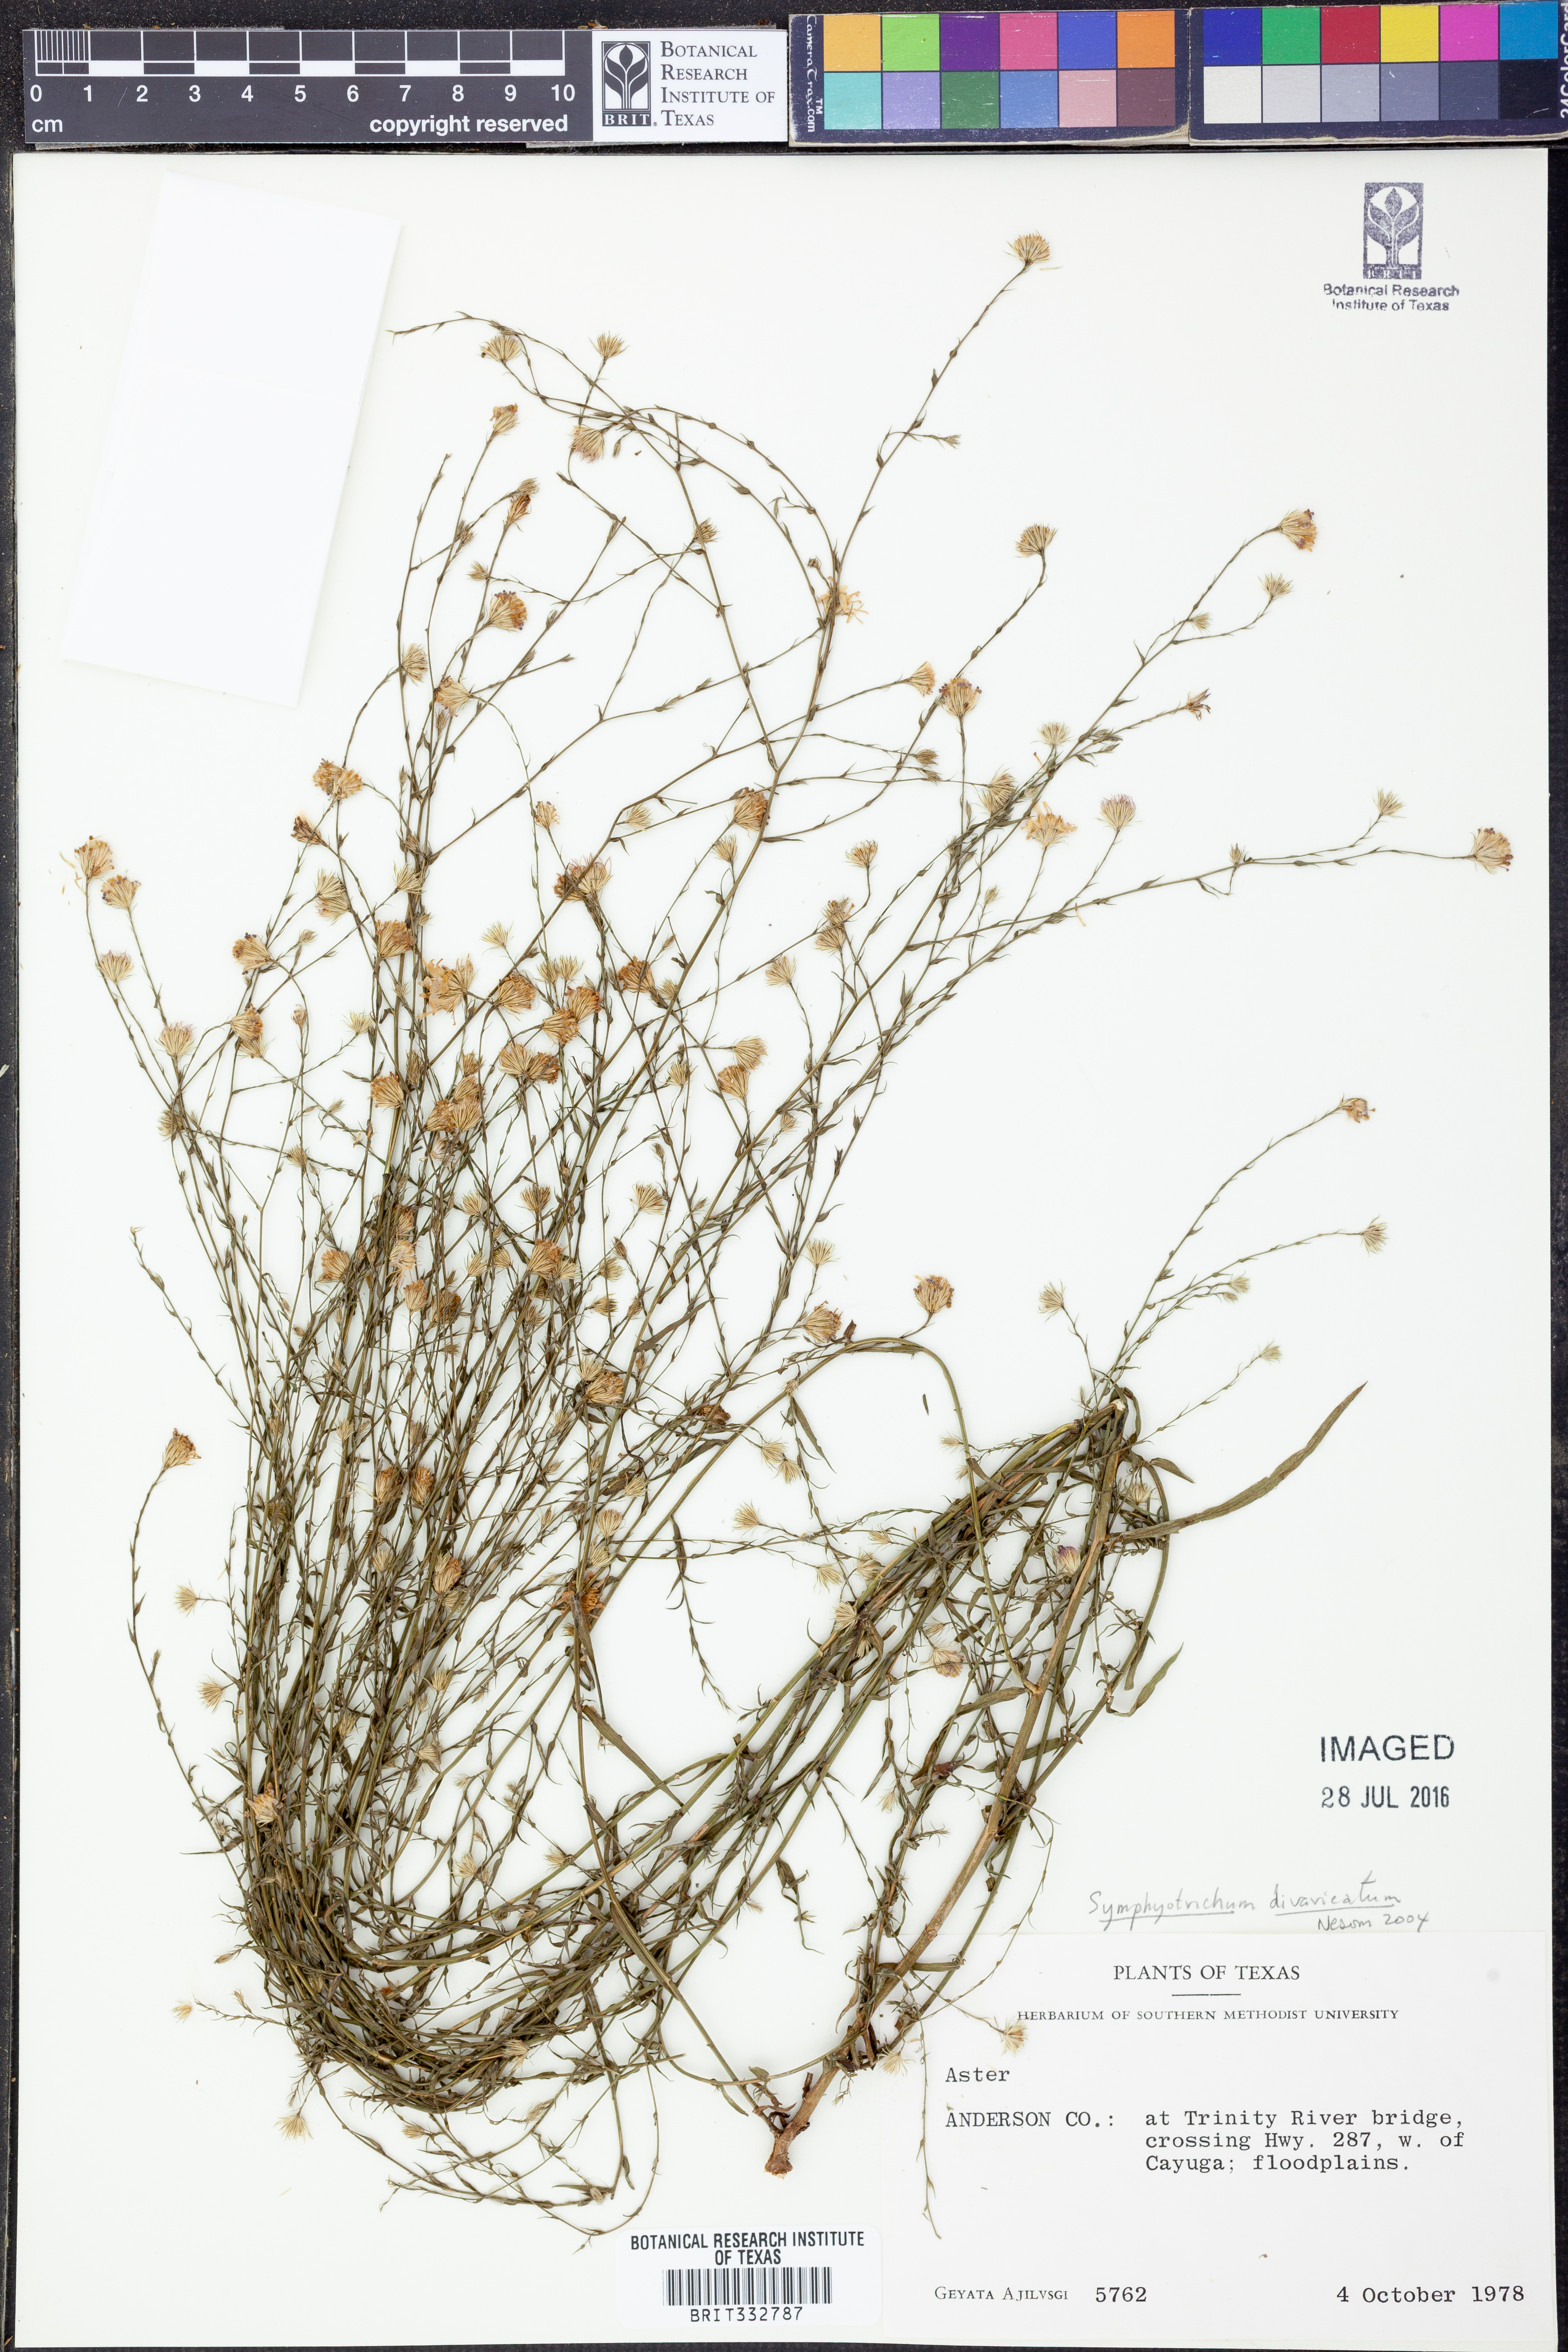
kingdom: Plantae
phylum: Tracheophyta
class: Magnoliopsida
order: Asterales
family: Asteraceae
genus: Symphyotrichum
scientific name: Symphyotrichum divaricatum
